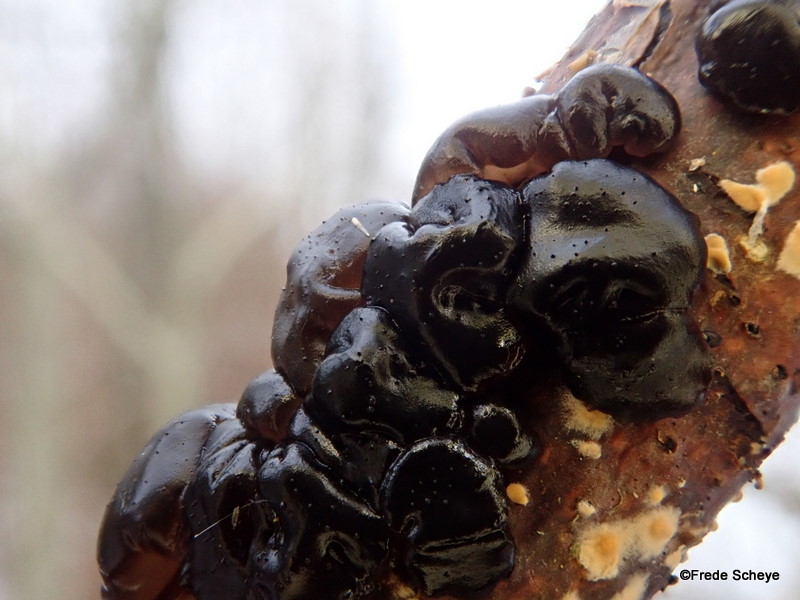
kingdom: Fungi
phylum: Basidiomycota
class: Agaricomycetes
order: Auriculariales
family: Auriculariaceae
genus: Exidia
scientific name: Exidia nigricans
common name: almindelig bævretop
